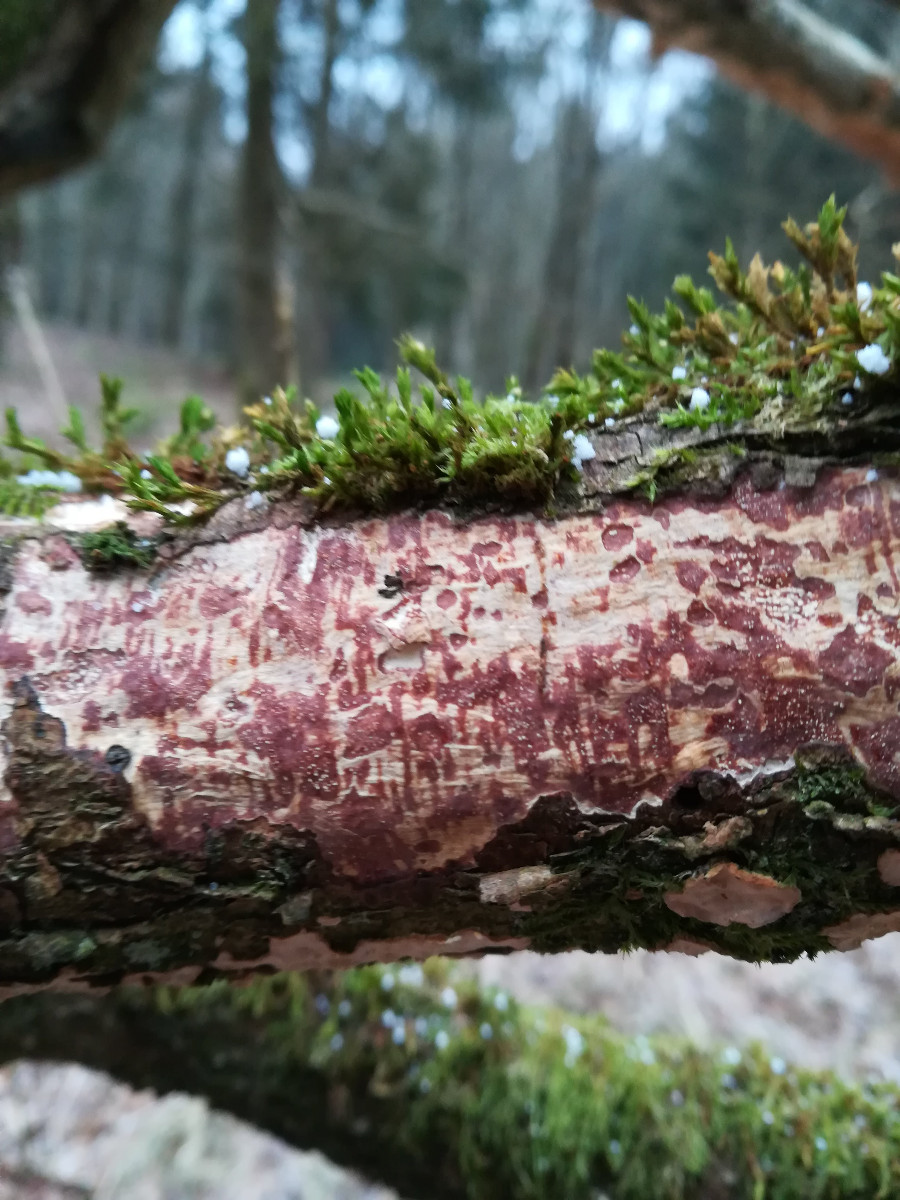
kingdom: Fungi
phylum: Basidiomycota
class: Agaricomycetes
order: Corticiales
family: Vuilleminiaceae
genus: Vuilleminia
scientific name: Vuilleminia comedens
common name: almindelig barksprænger
